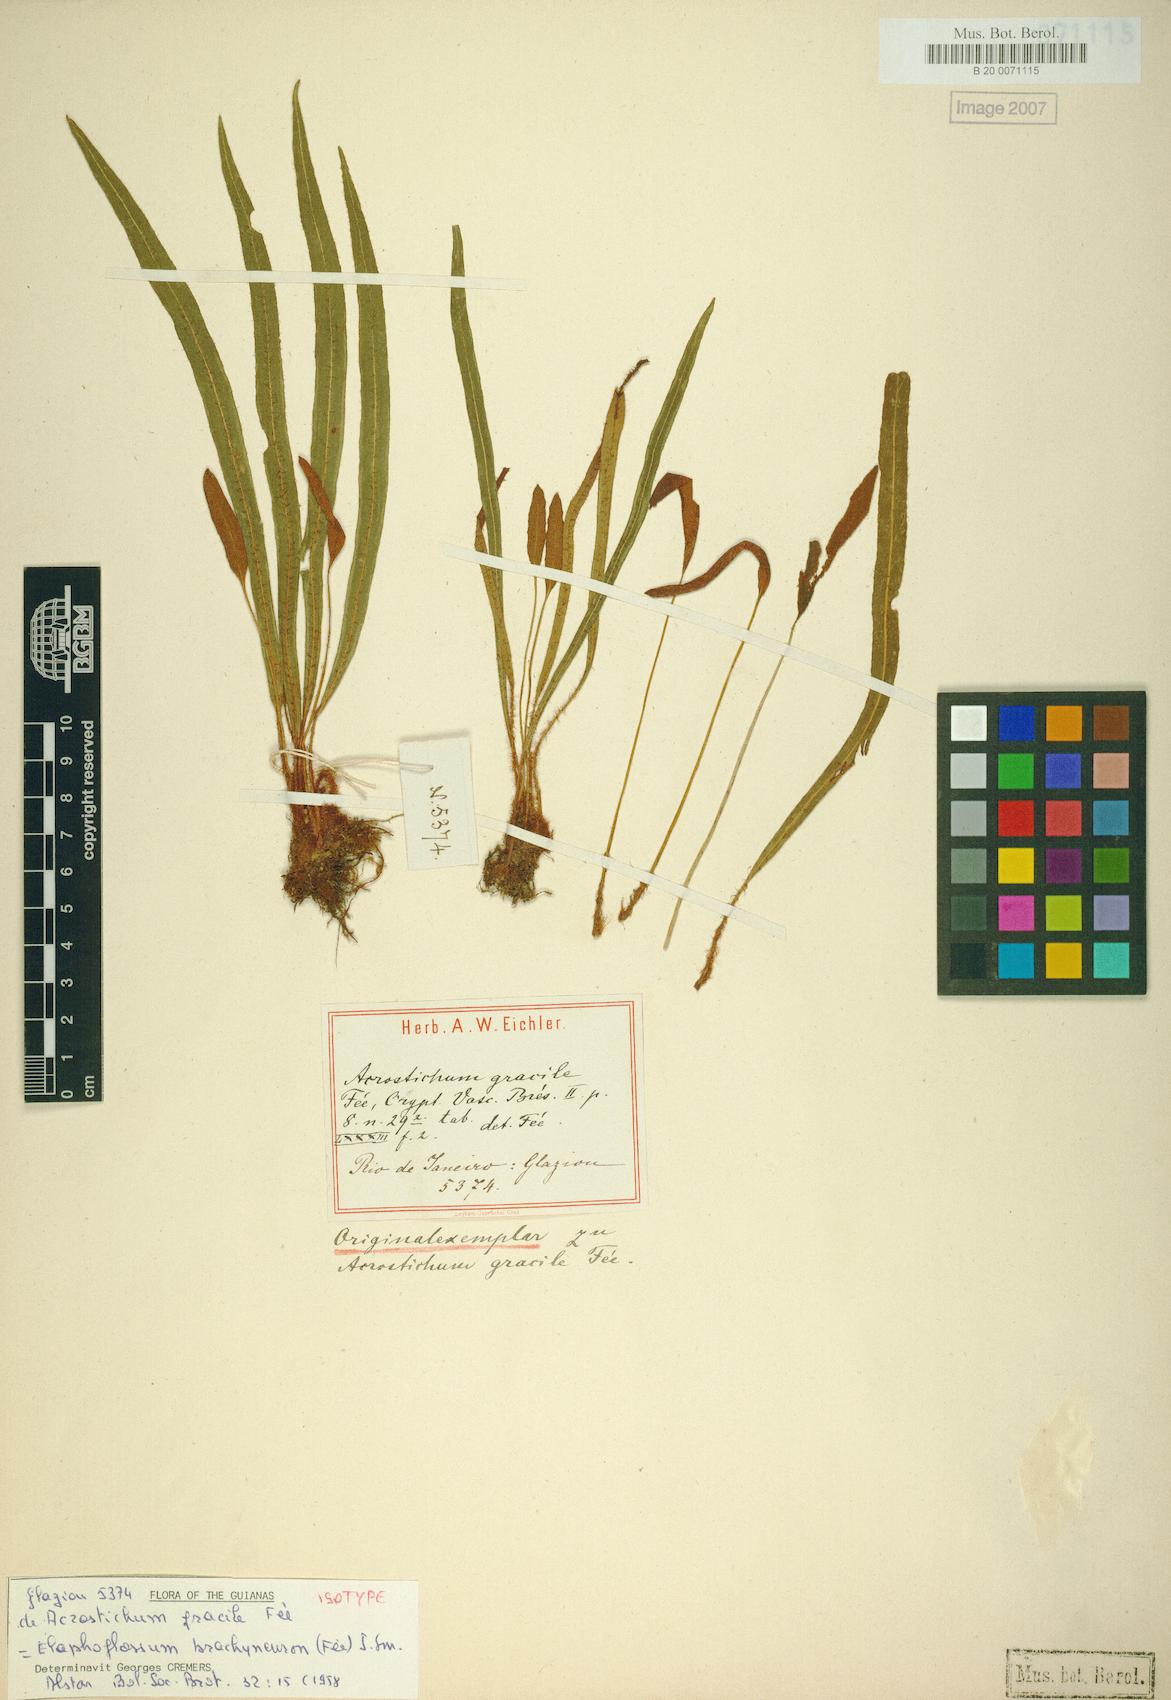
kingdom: Plantae
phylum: Tracheophyta
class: Polypodiopsida
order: Polypodiales
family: Dryopteridaceae
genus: Elaphoglossum
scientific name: Elaphoglossum brachyneuron
